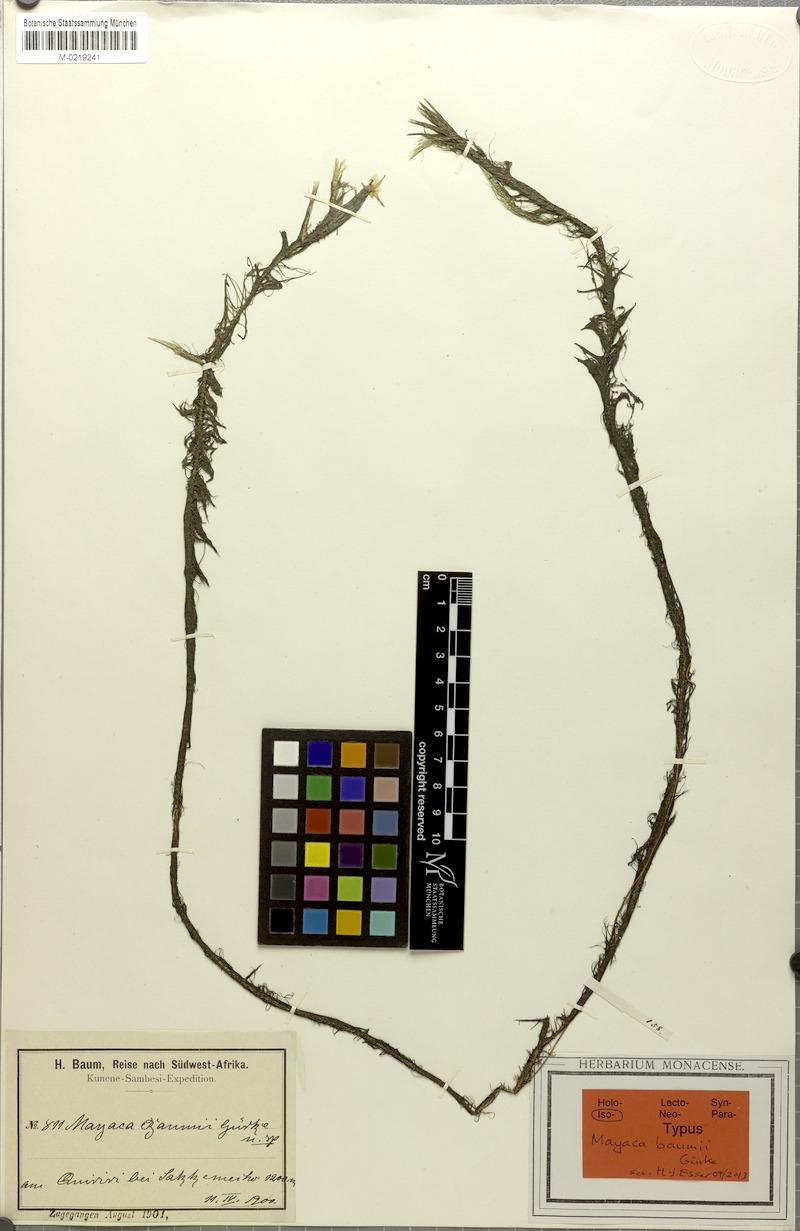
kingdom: Plantae
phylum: Tracheophyta
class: Liliopsida
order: Poales
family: Mayacaceae
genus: Mayaca
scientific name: Mayaca baumii
